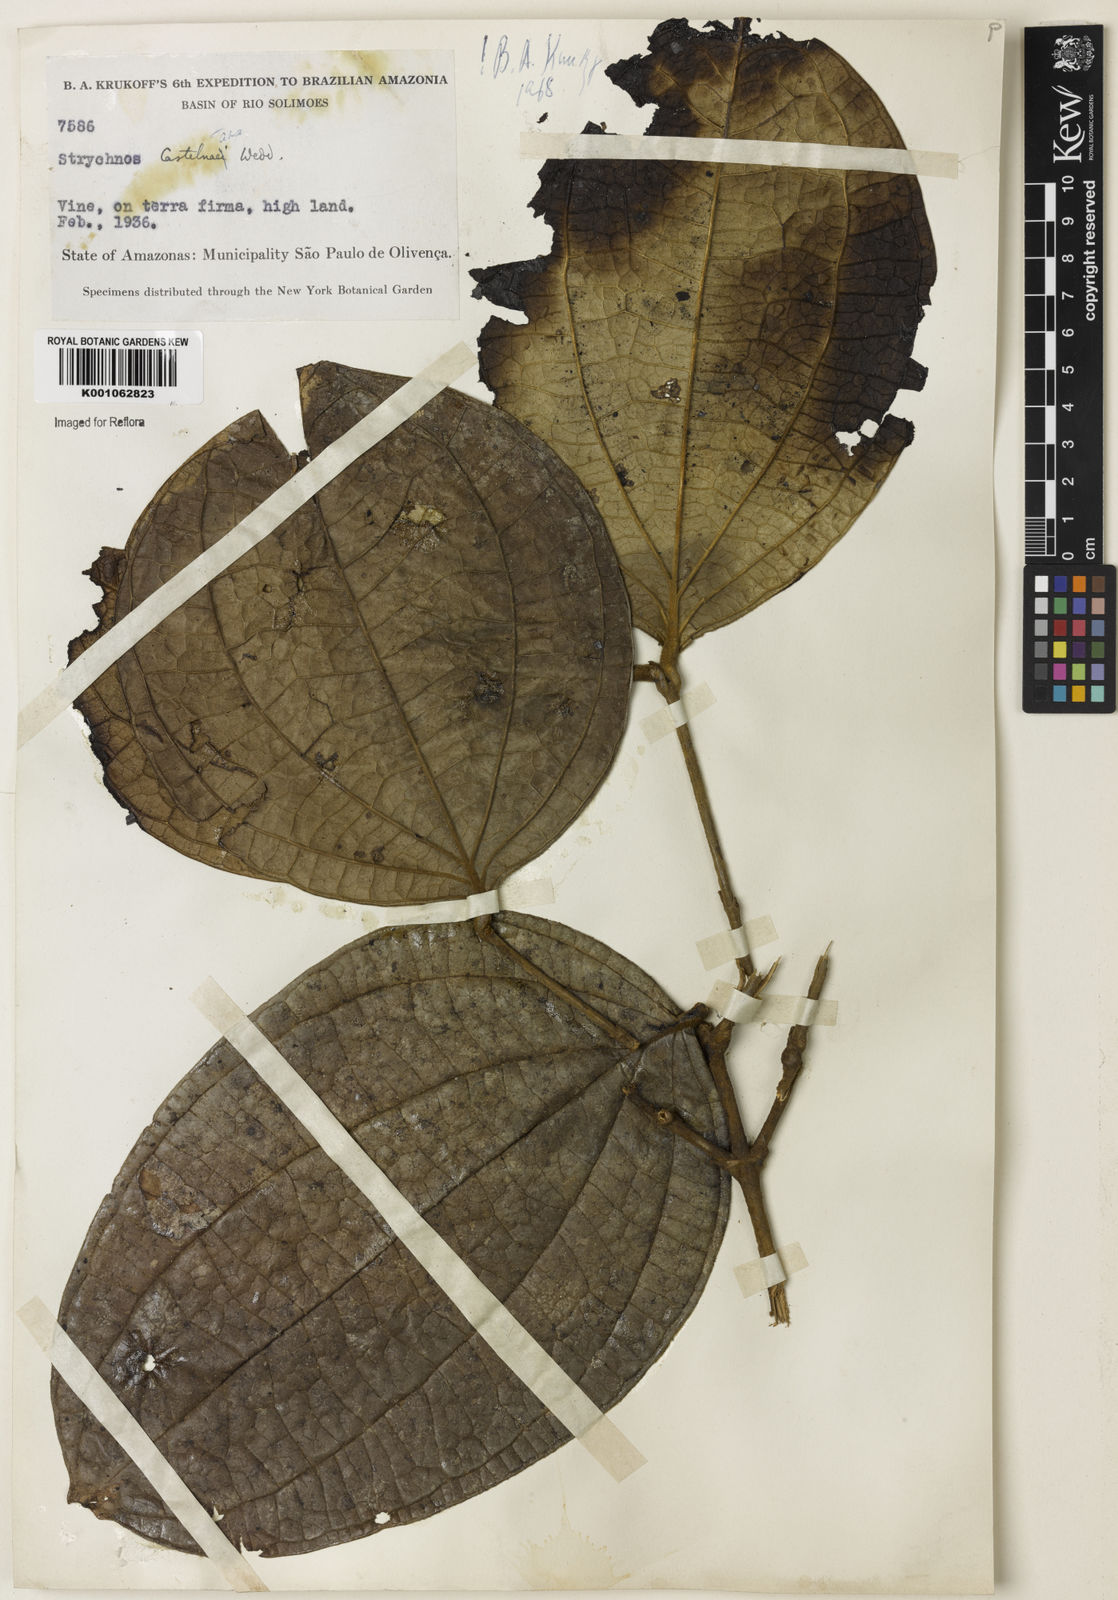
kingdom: Plantae
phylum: Tracheophyta
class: Magnoliopsida
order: Gentianales
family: Loganiaceae
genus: Strychnos
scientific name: Strychnos
